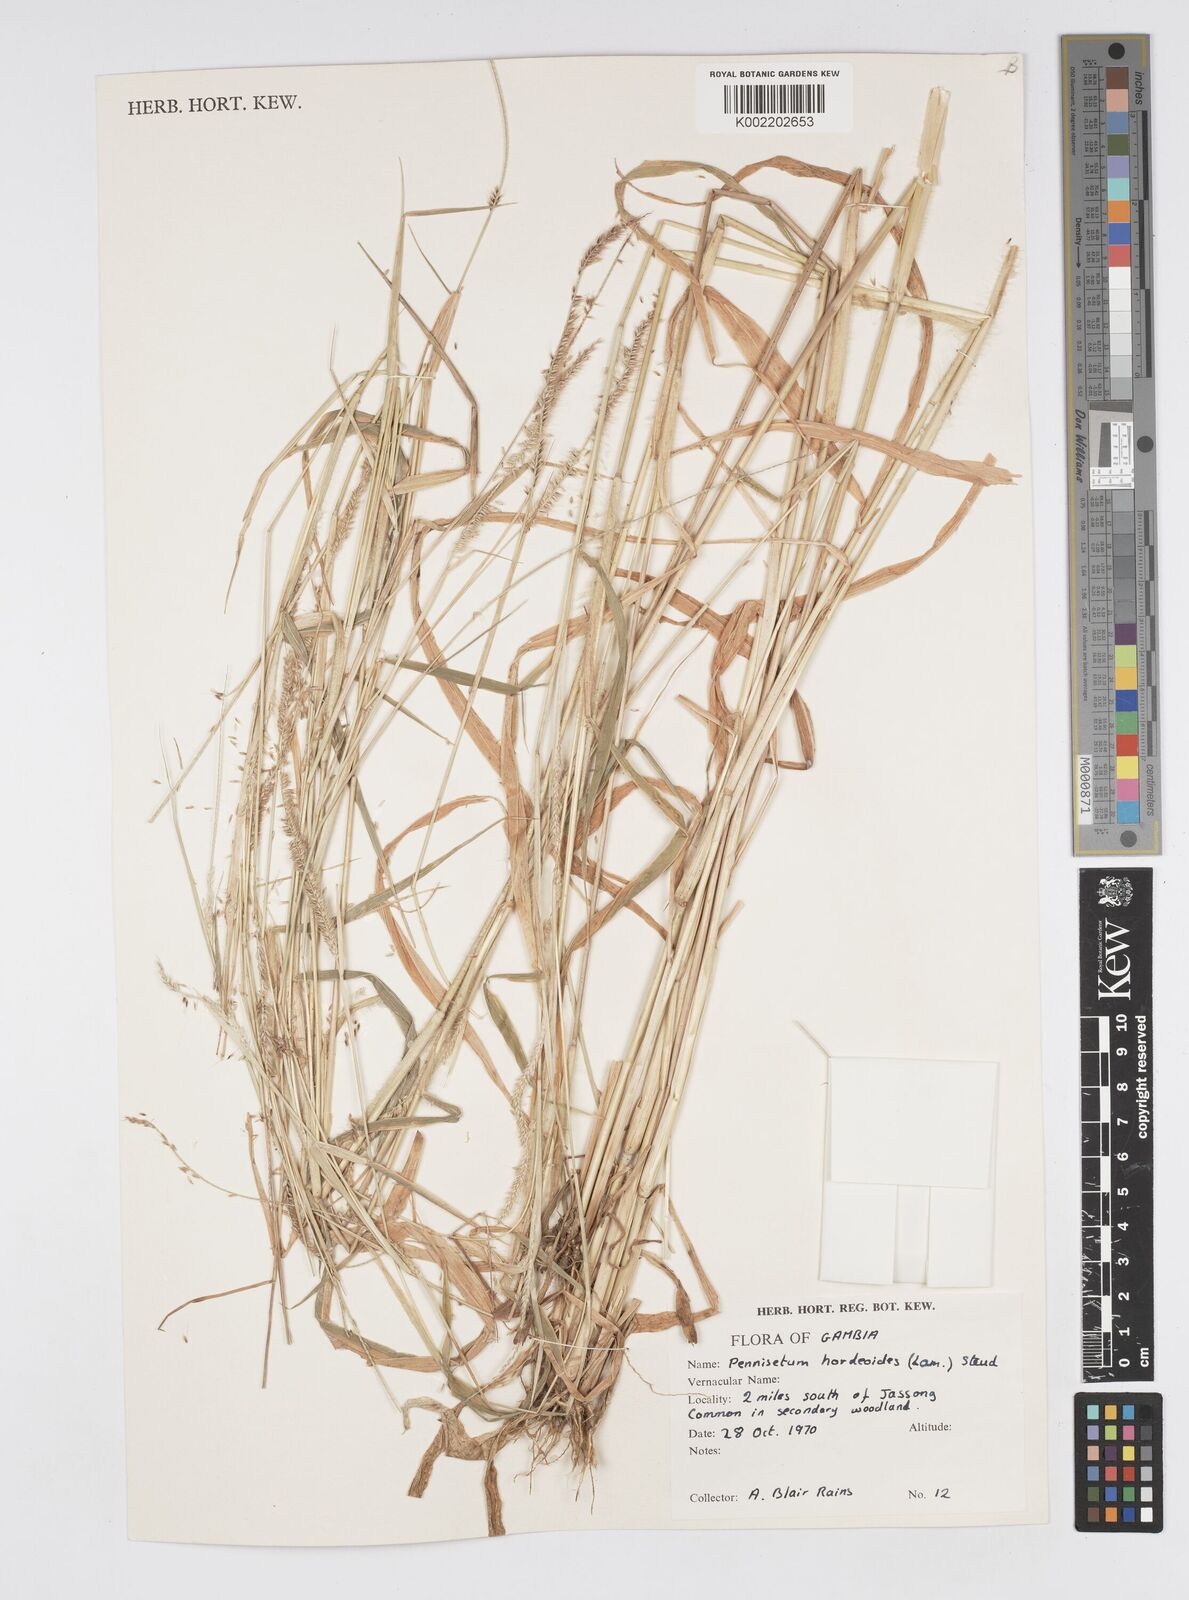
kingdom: Plantae
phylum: Tracheophyta
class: Liliopsida
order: Poales
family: Poaceae
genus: Cenchrus
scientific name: Cenchrus hordeoides
